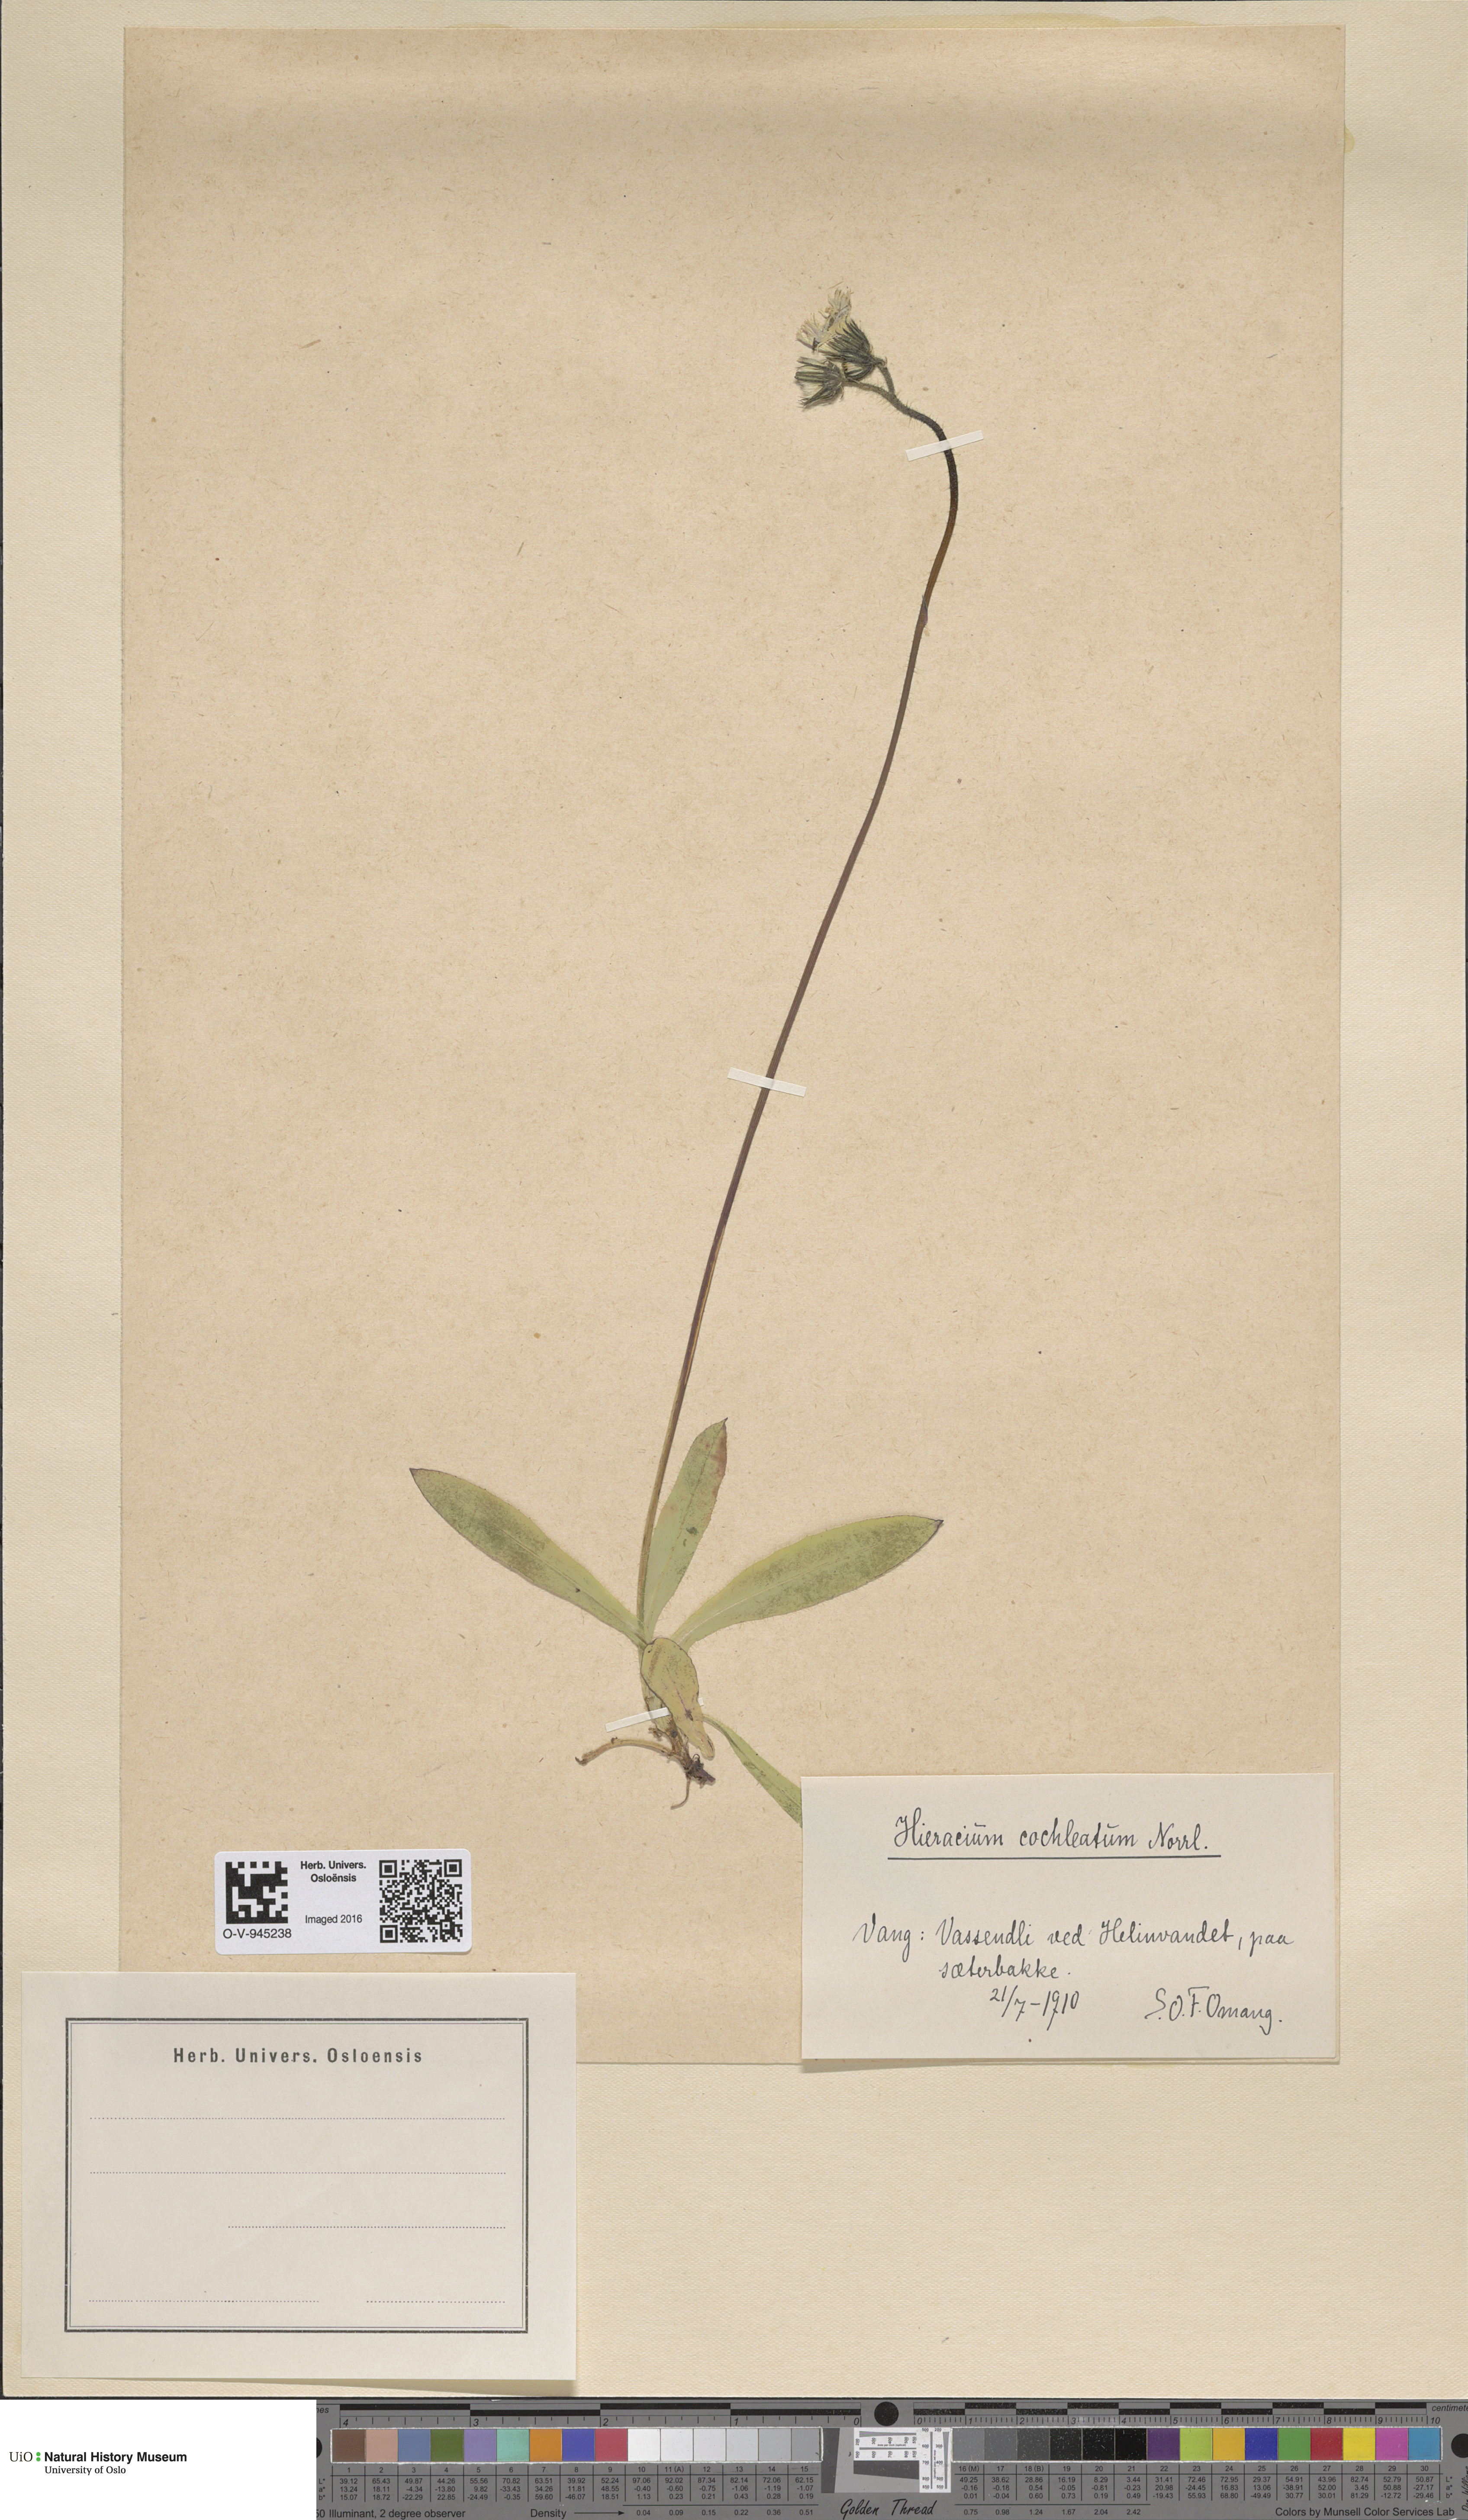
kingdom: Plantae
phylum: Tracheophyta
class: Magnoliopsida
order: Asterales
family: Asteraceae
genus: Pilosella
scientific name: Pilosella floribunda
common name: Glaucous hawkweed
